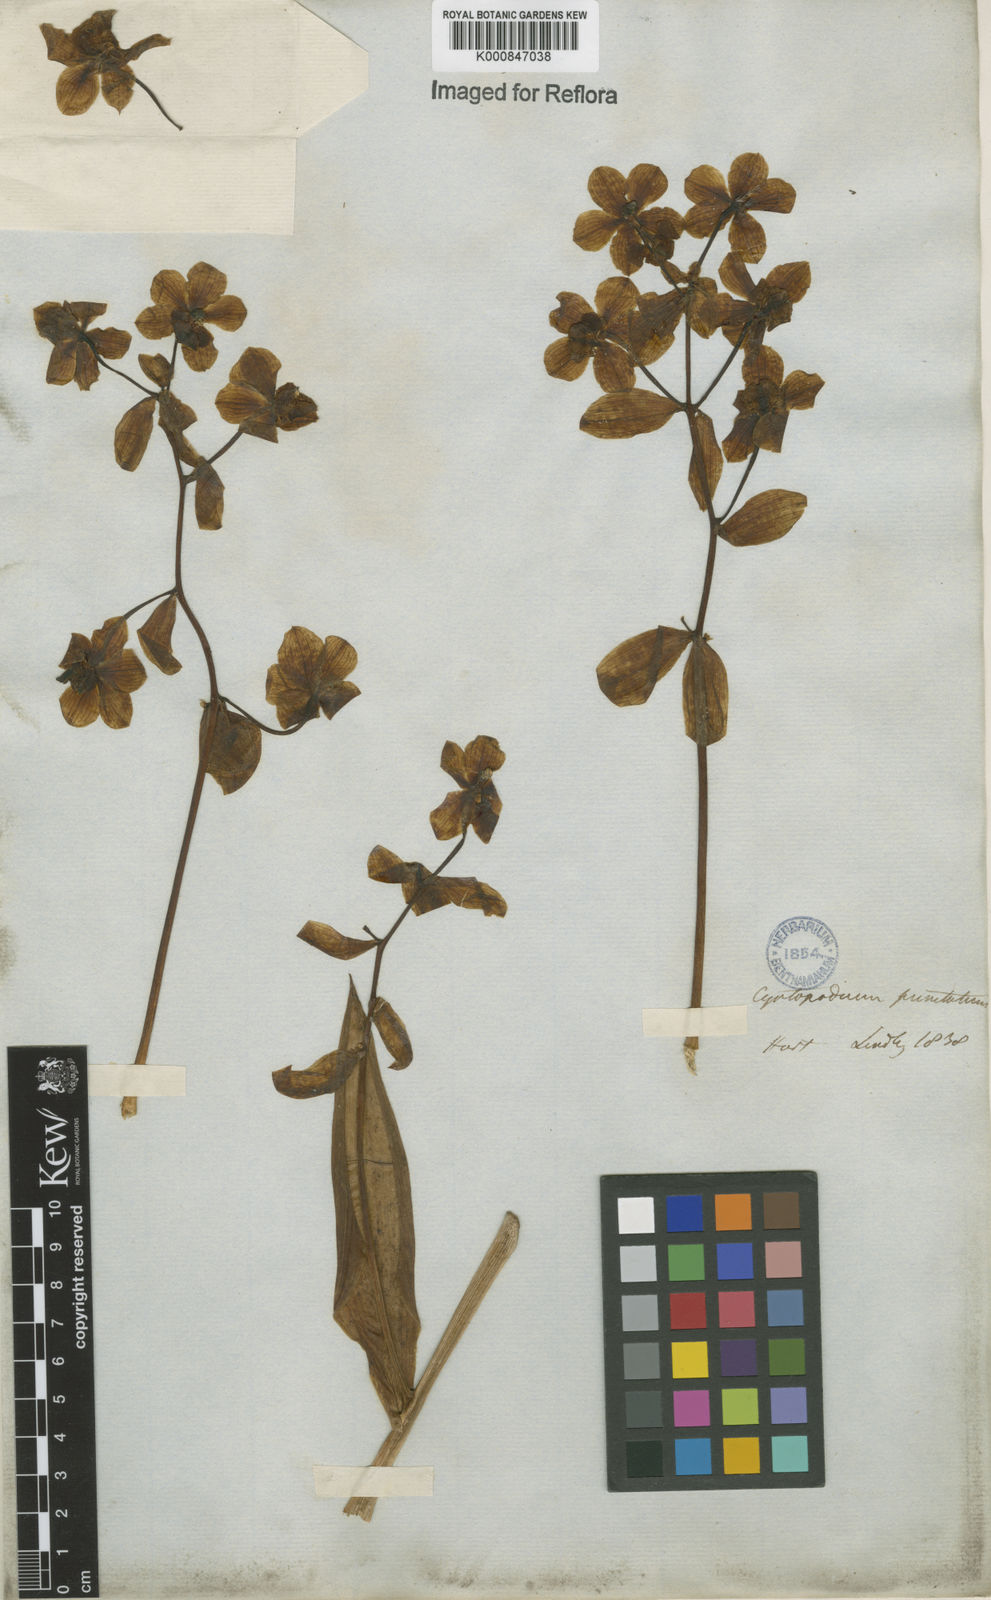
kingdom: Plantae
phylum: Tracheophyta
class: Liliopsida
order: Asparagales
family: Orchidaceae
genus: Cyrtopodium
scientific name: Cyrtopodium punctatum
